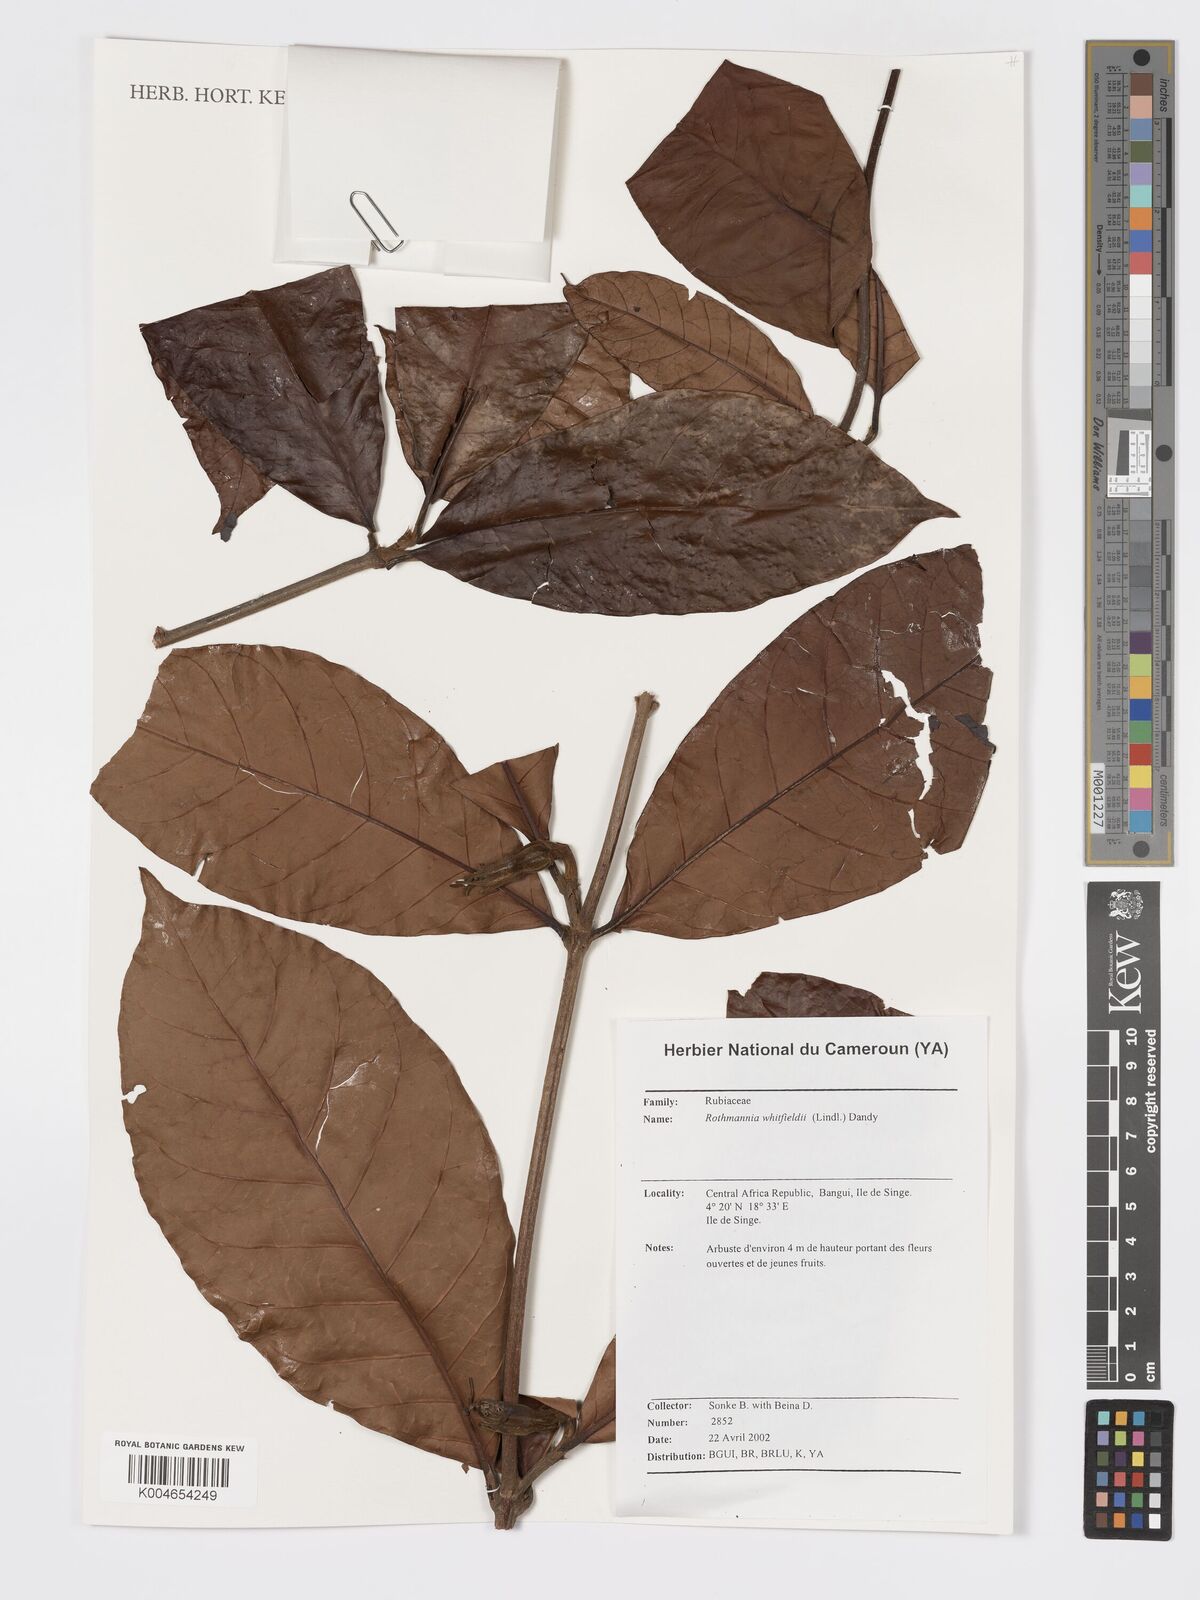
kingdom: Plantae
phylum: Tracheophyta
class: Magnoliopsida
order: Gentianales
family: Rubiaceae
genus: Rothmannia
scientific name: Rothmannia whitfieldii
